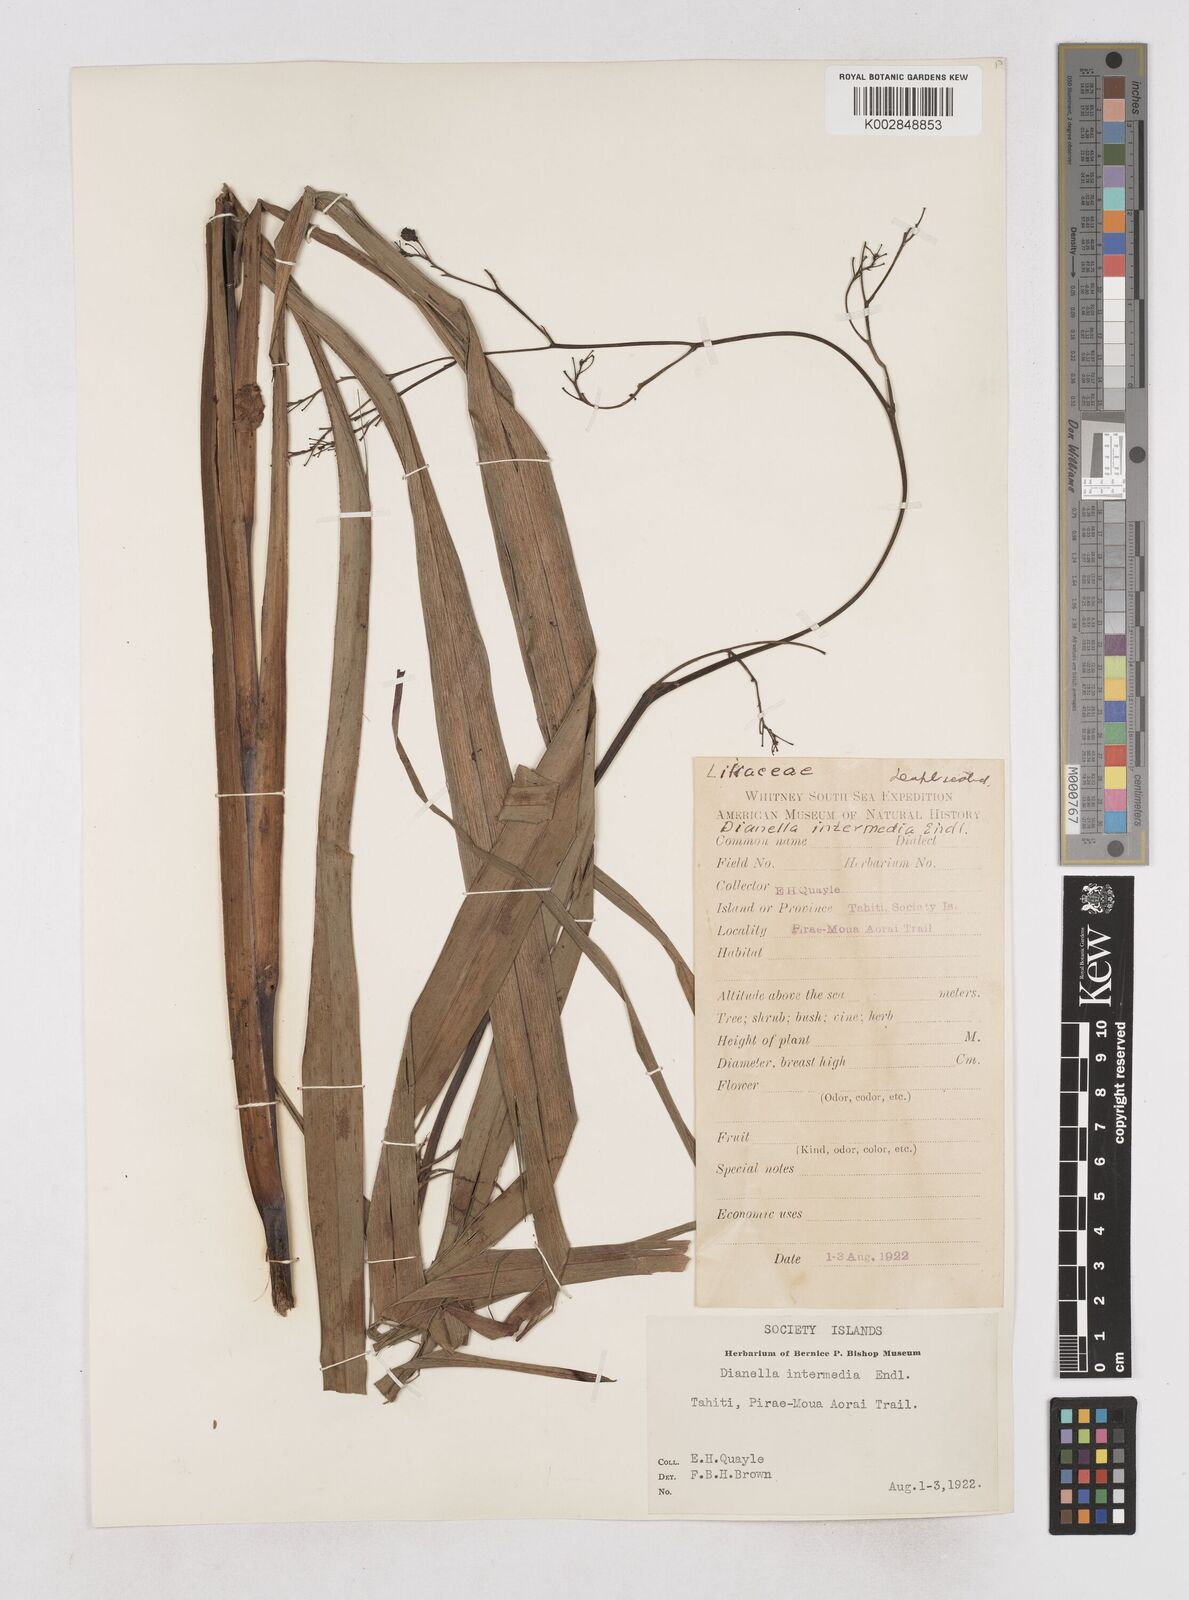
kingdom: Plantae
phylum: Tracheophyta
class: Liliopsida
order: Asparagales
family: Asphodelaceae
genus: Dianella
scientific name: Dianella intermedia
